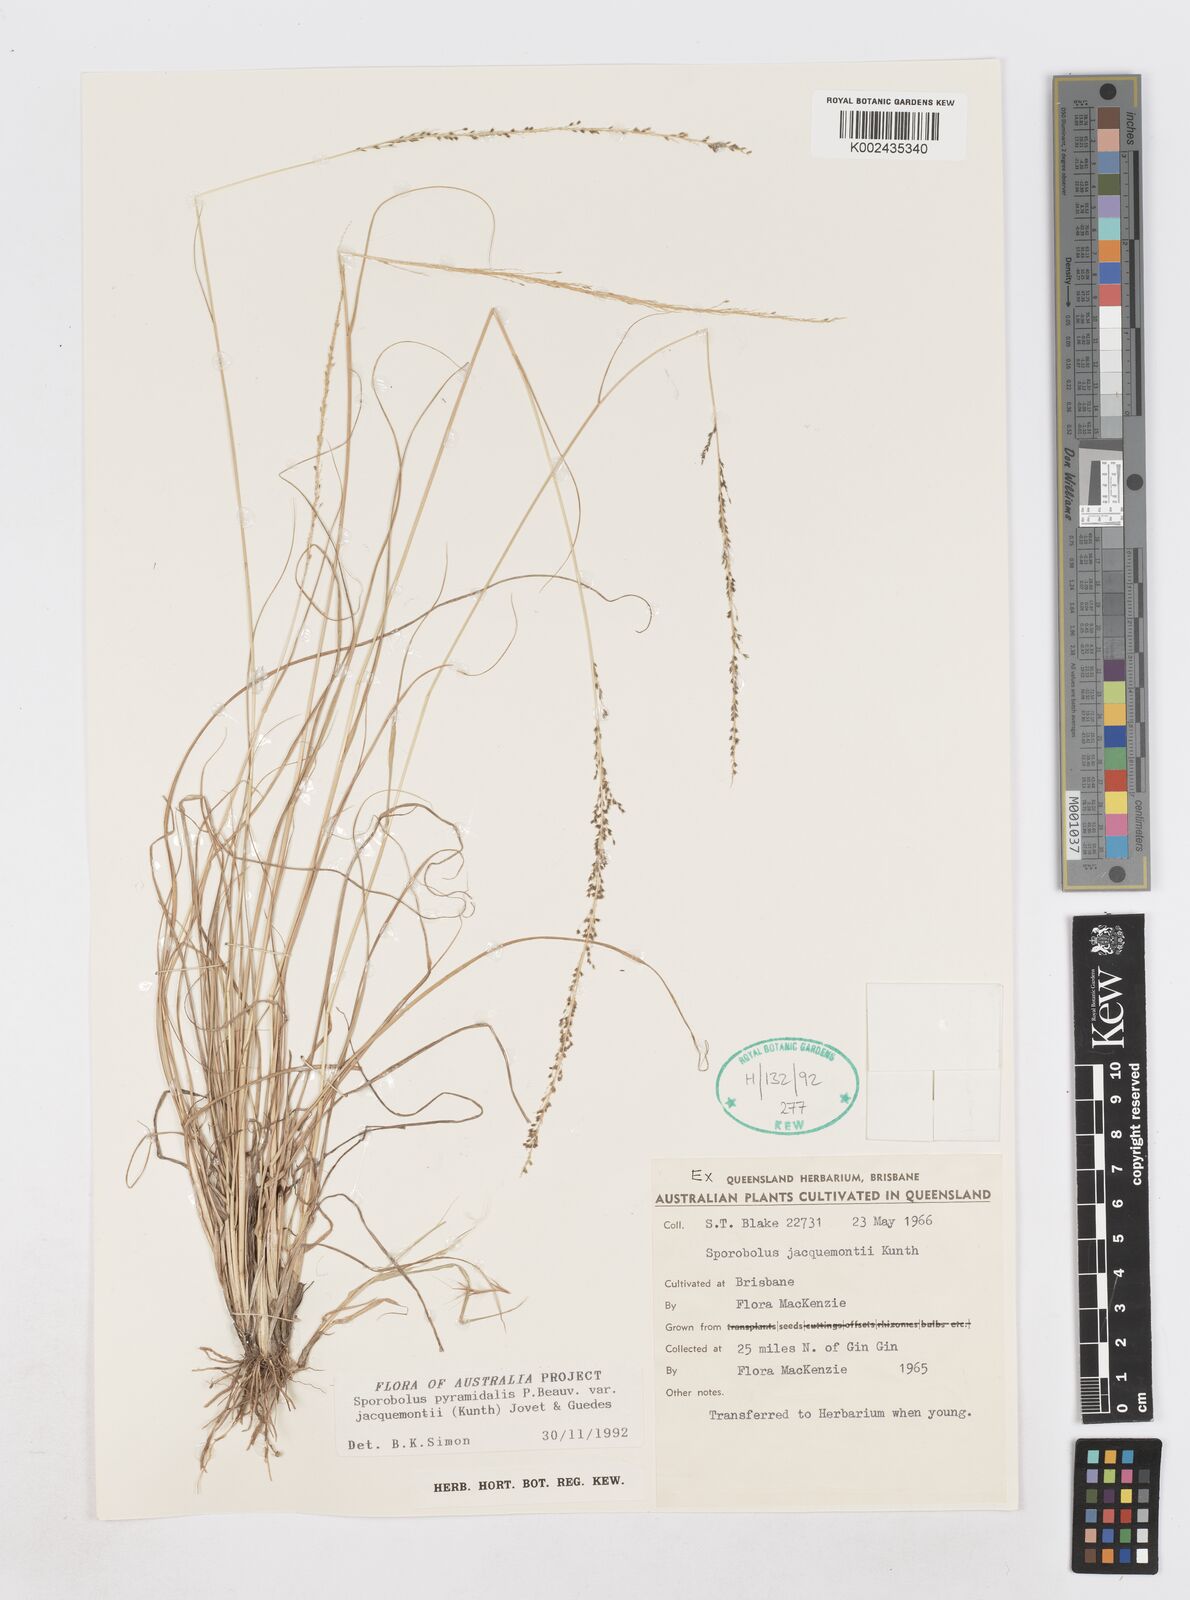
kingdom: Plantae
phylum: Tracheophyta
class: Liliopsida
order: Poales
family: Poaceae
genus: Sporobolus
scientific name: Sporobolus pyramidalis
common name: West indian dropseed
